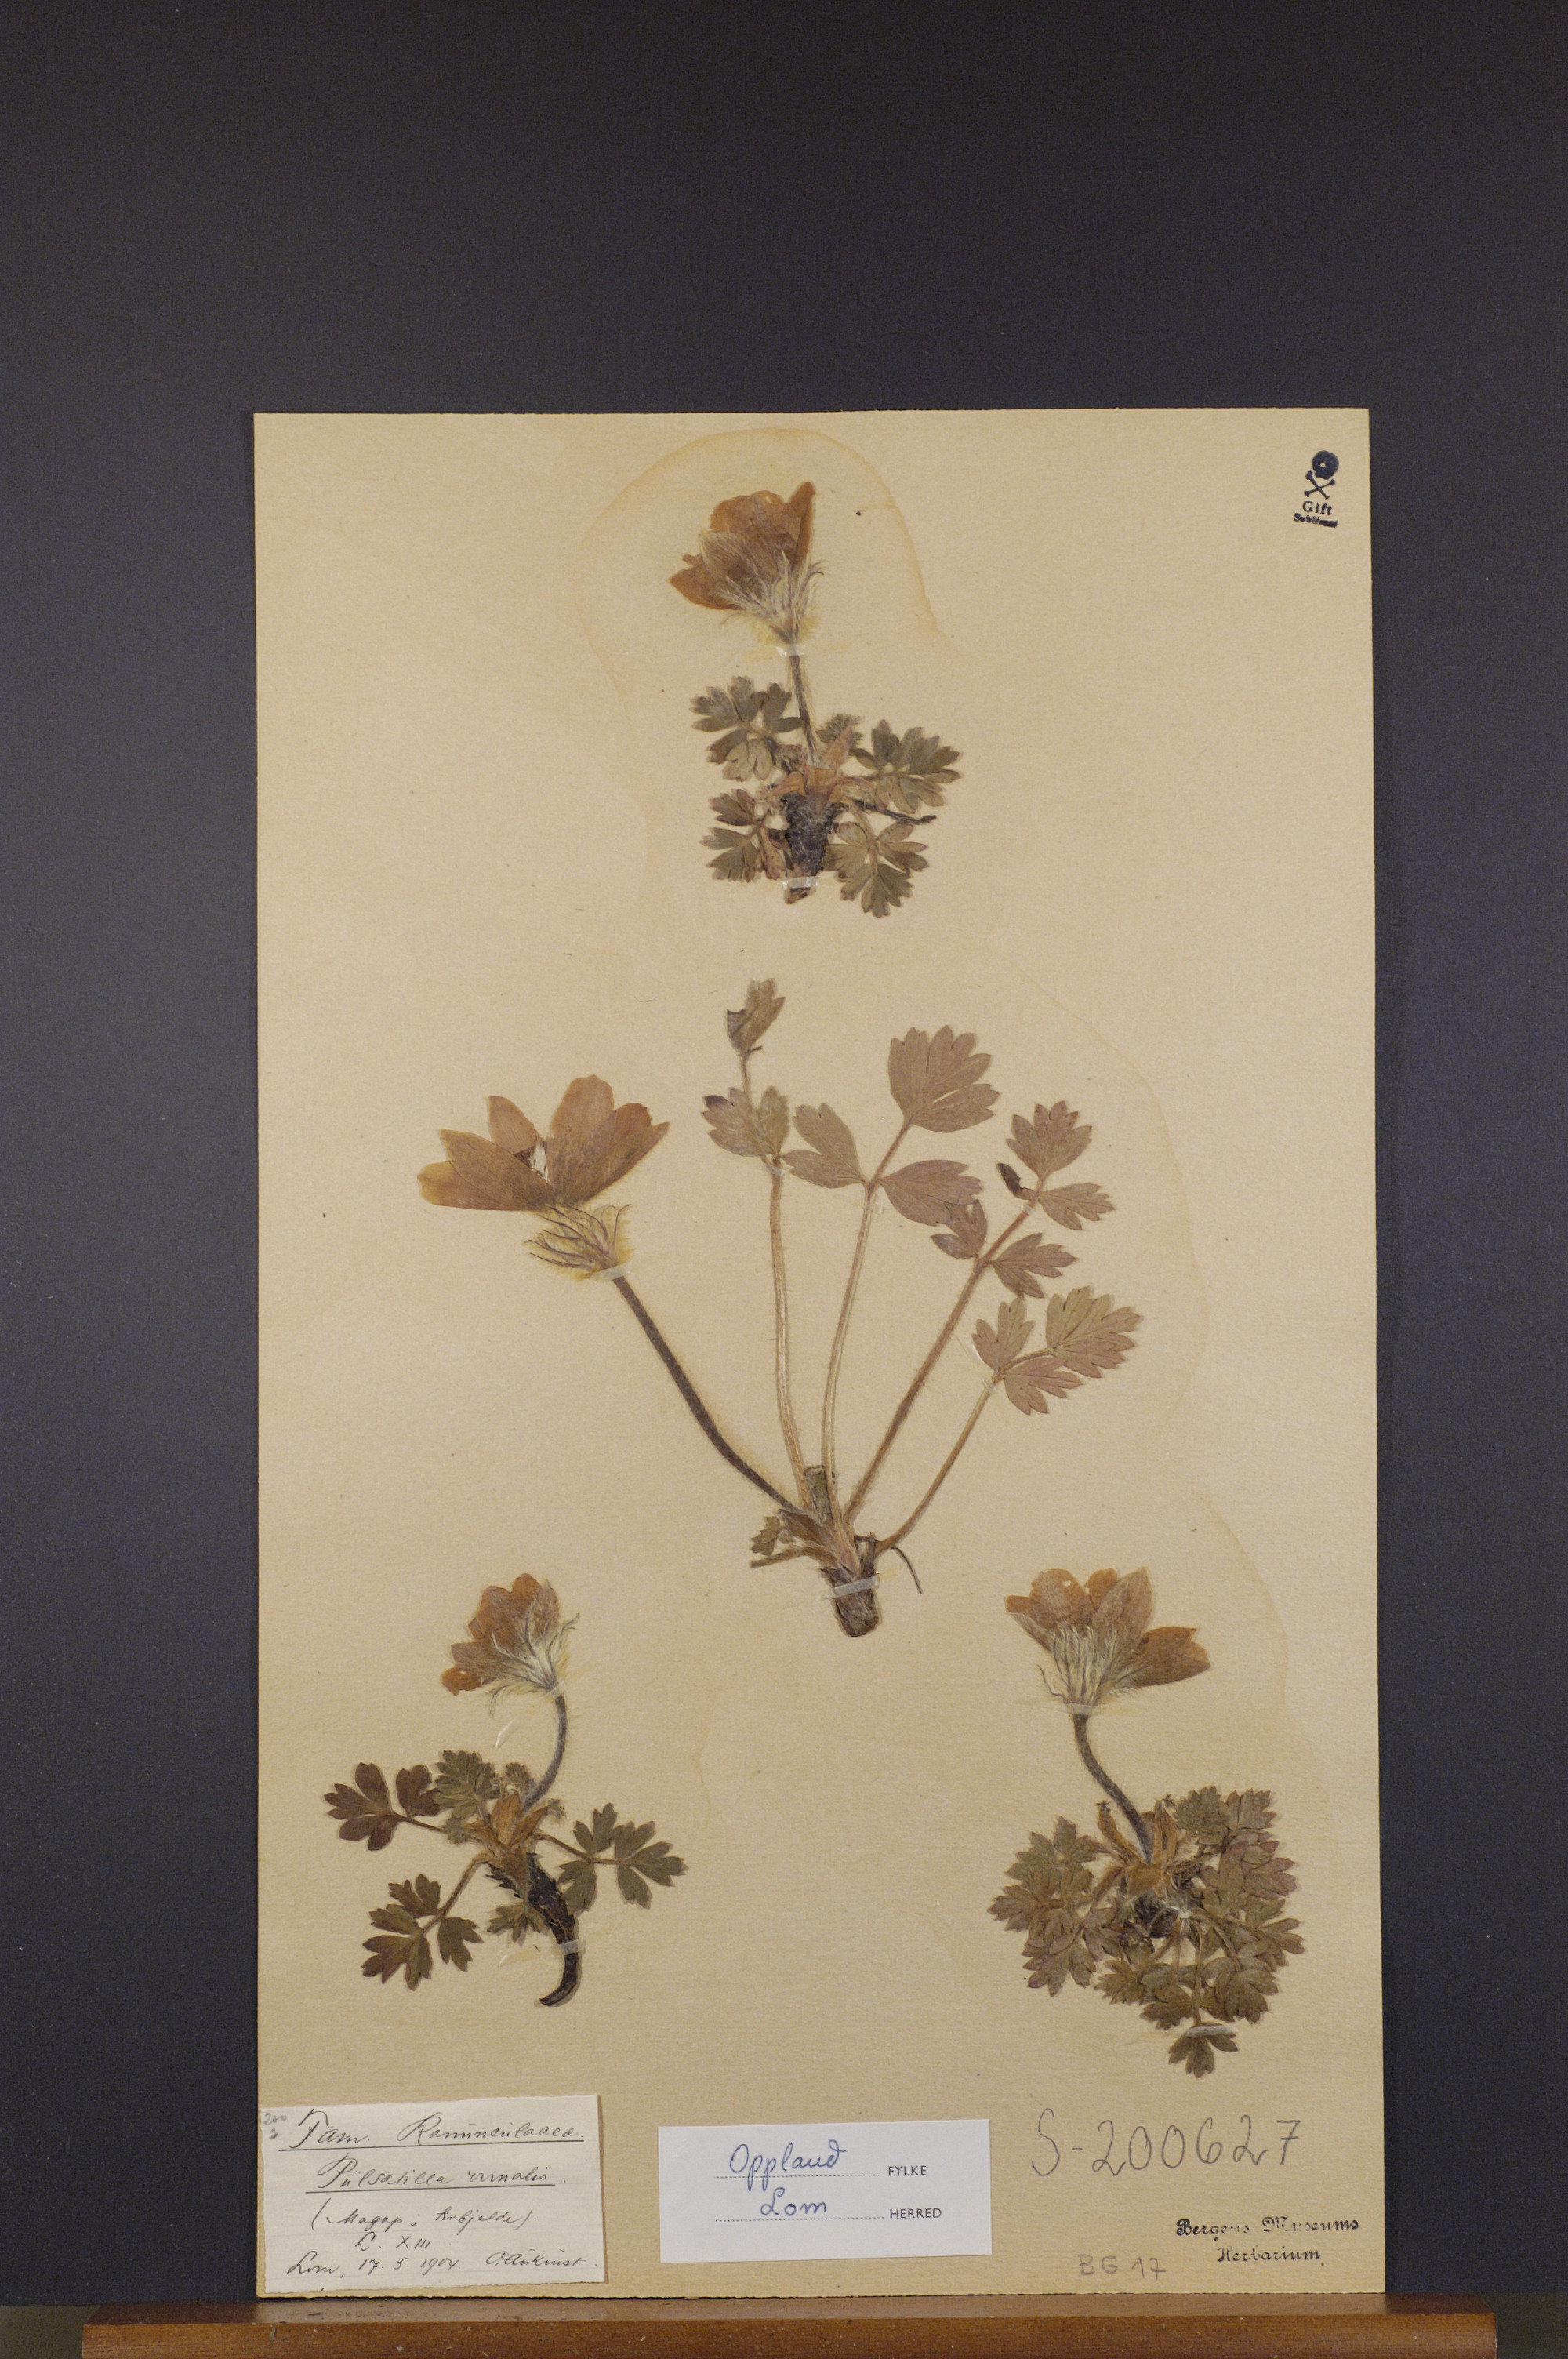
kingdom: Plantae
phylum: Tracheophyta
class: Magnoliopsida
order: Ranunculales
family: Ranunculaceae
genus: Pulsatilla
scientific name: Pulsatilla vernalis
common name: Spring pasque flower
